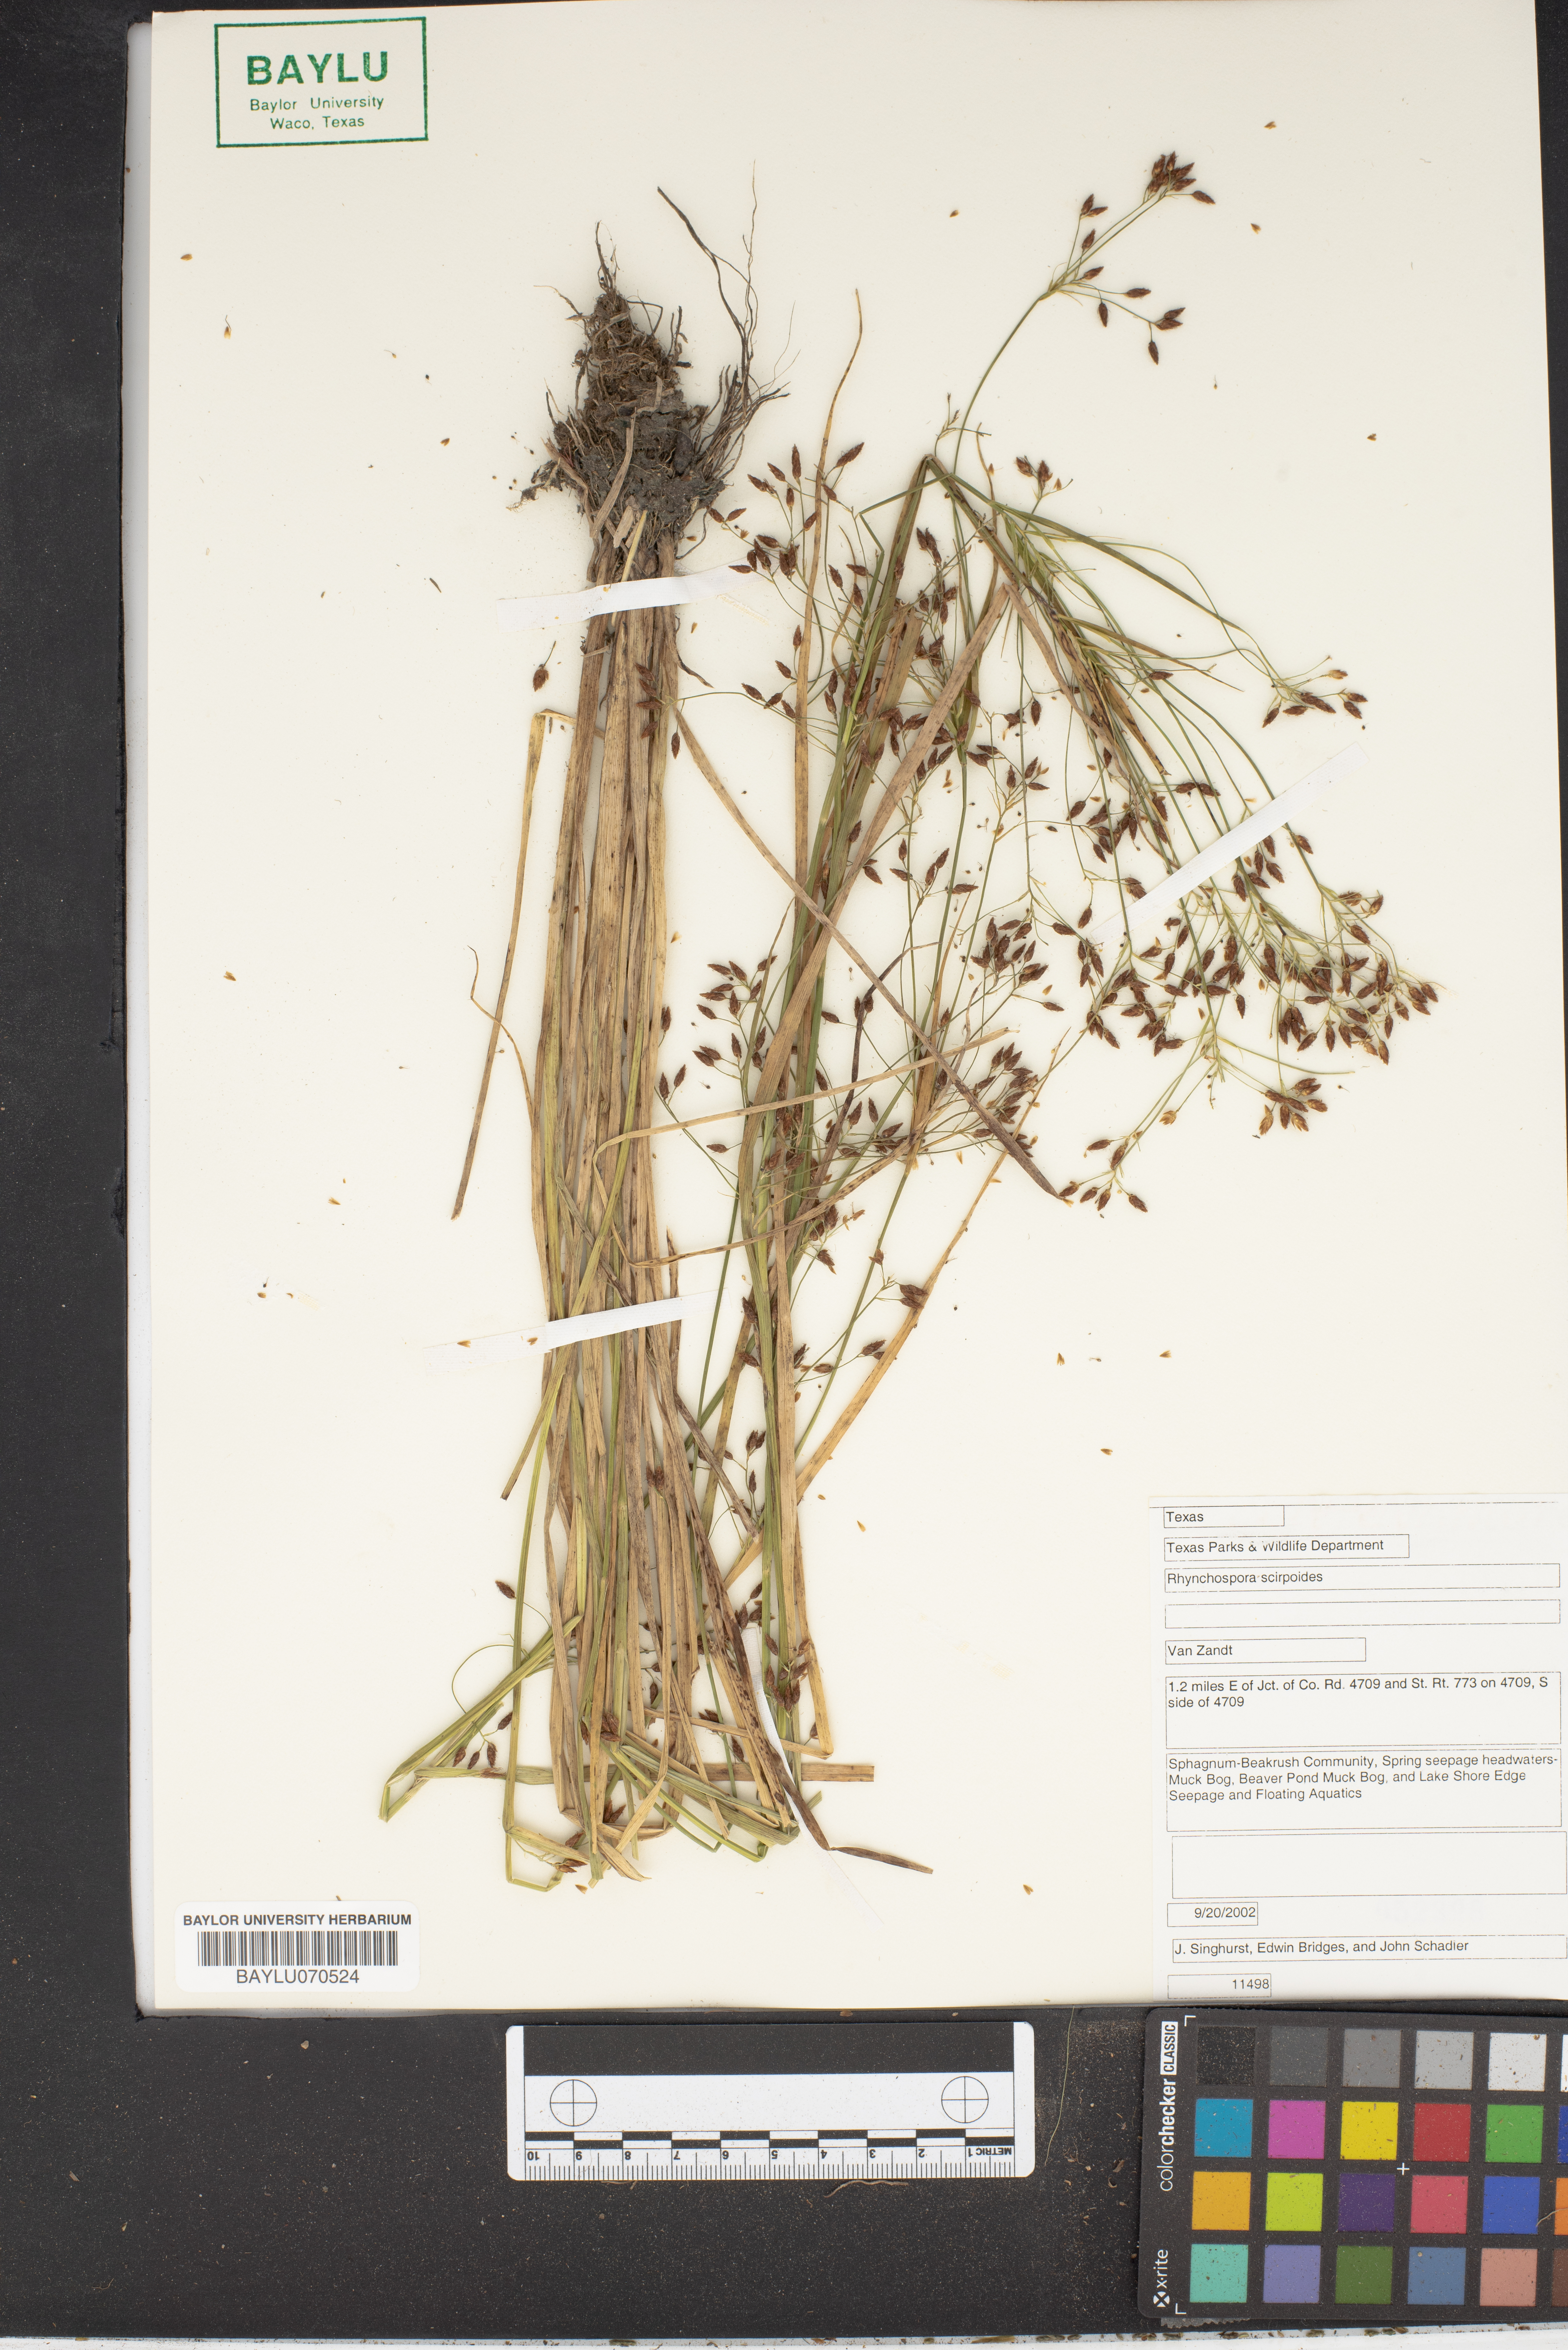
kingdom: Plantae
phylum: Tracheophyta
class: Liliopsida
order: Poales
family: Cyperaceae
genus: Rhynchospora
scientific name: Rhynchospora scirpoides
